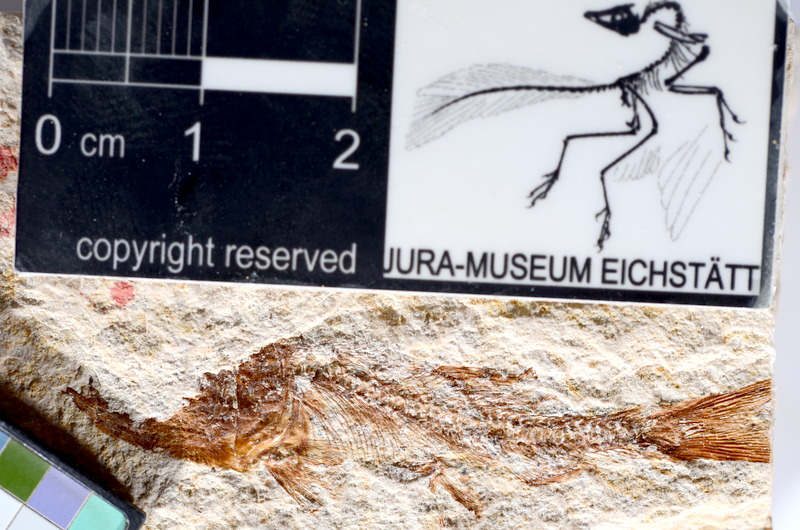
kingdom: Animalia
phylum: Chordata
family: Ascalaboidae
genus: Tharsis
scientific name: Tharsis dubius
